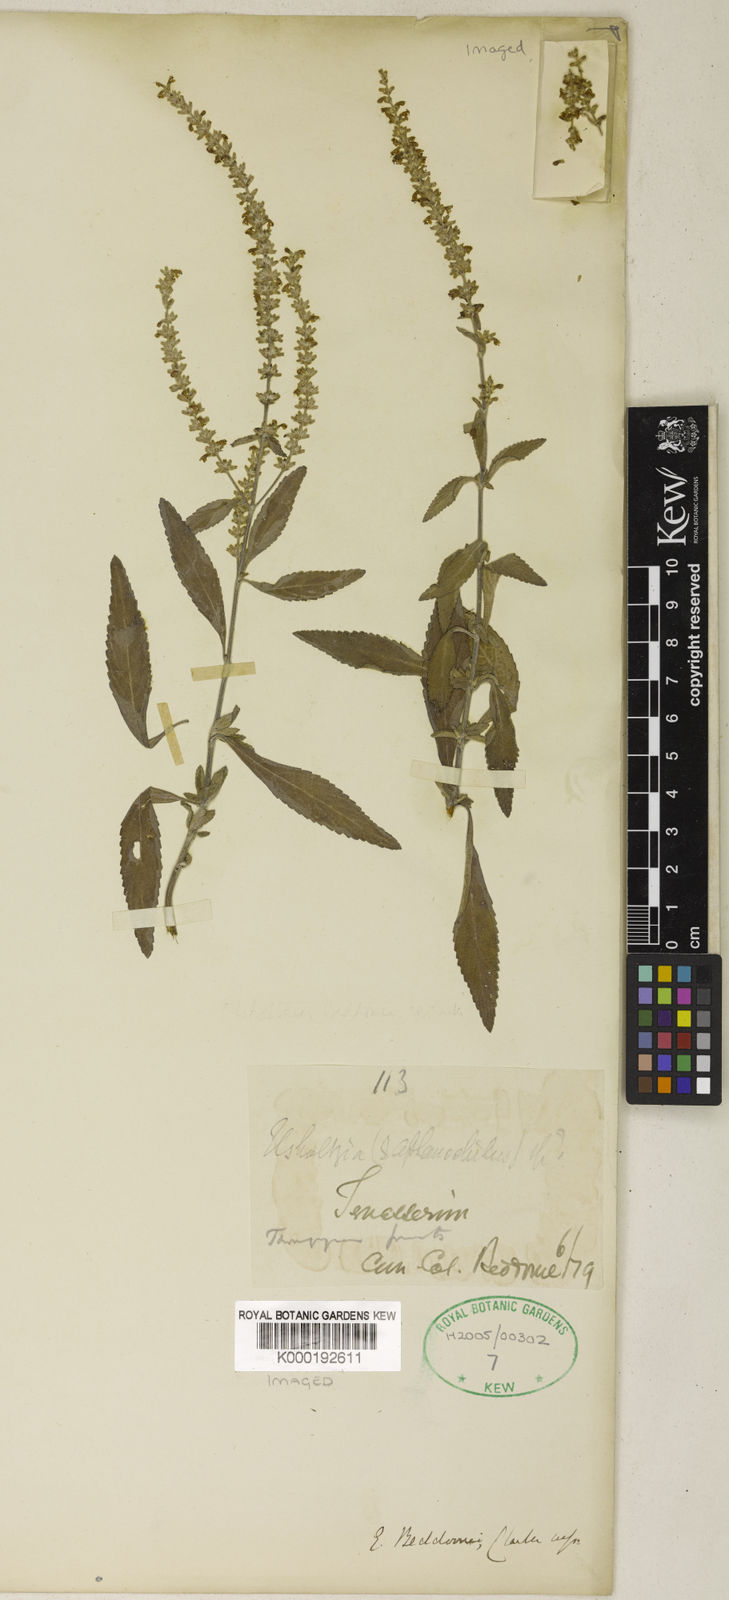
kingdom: Plantae
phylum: Tracheophyta
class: Magnoliopsida
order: Lamiales
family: Lamiaceae
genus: Elsholtzia
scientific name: Elsholtzia beddomei
